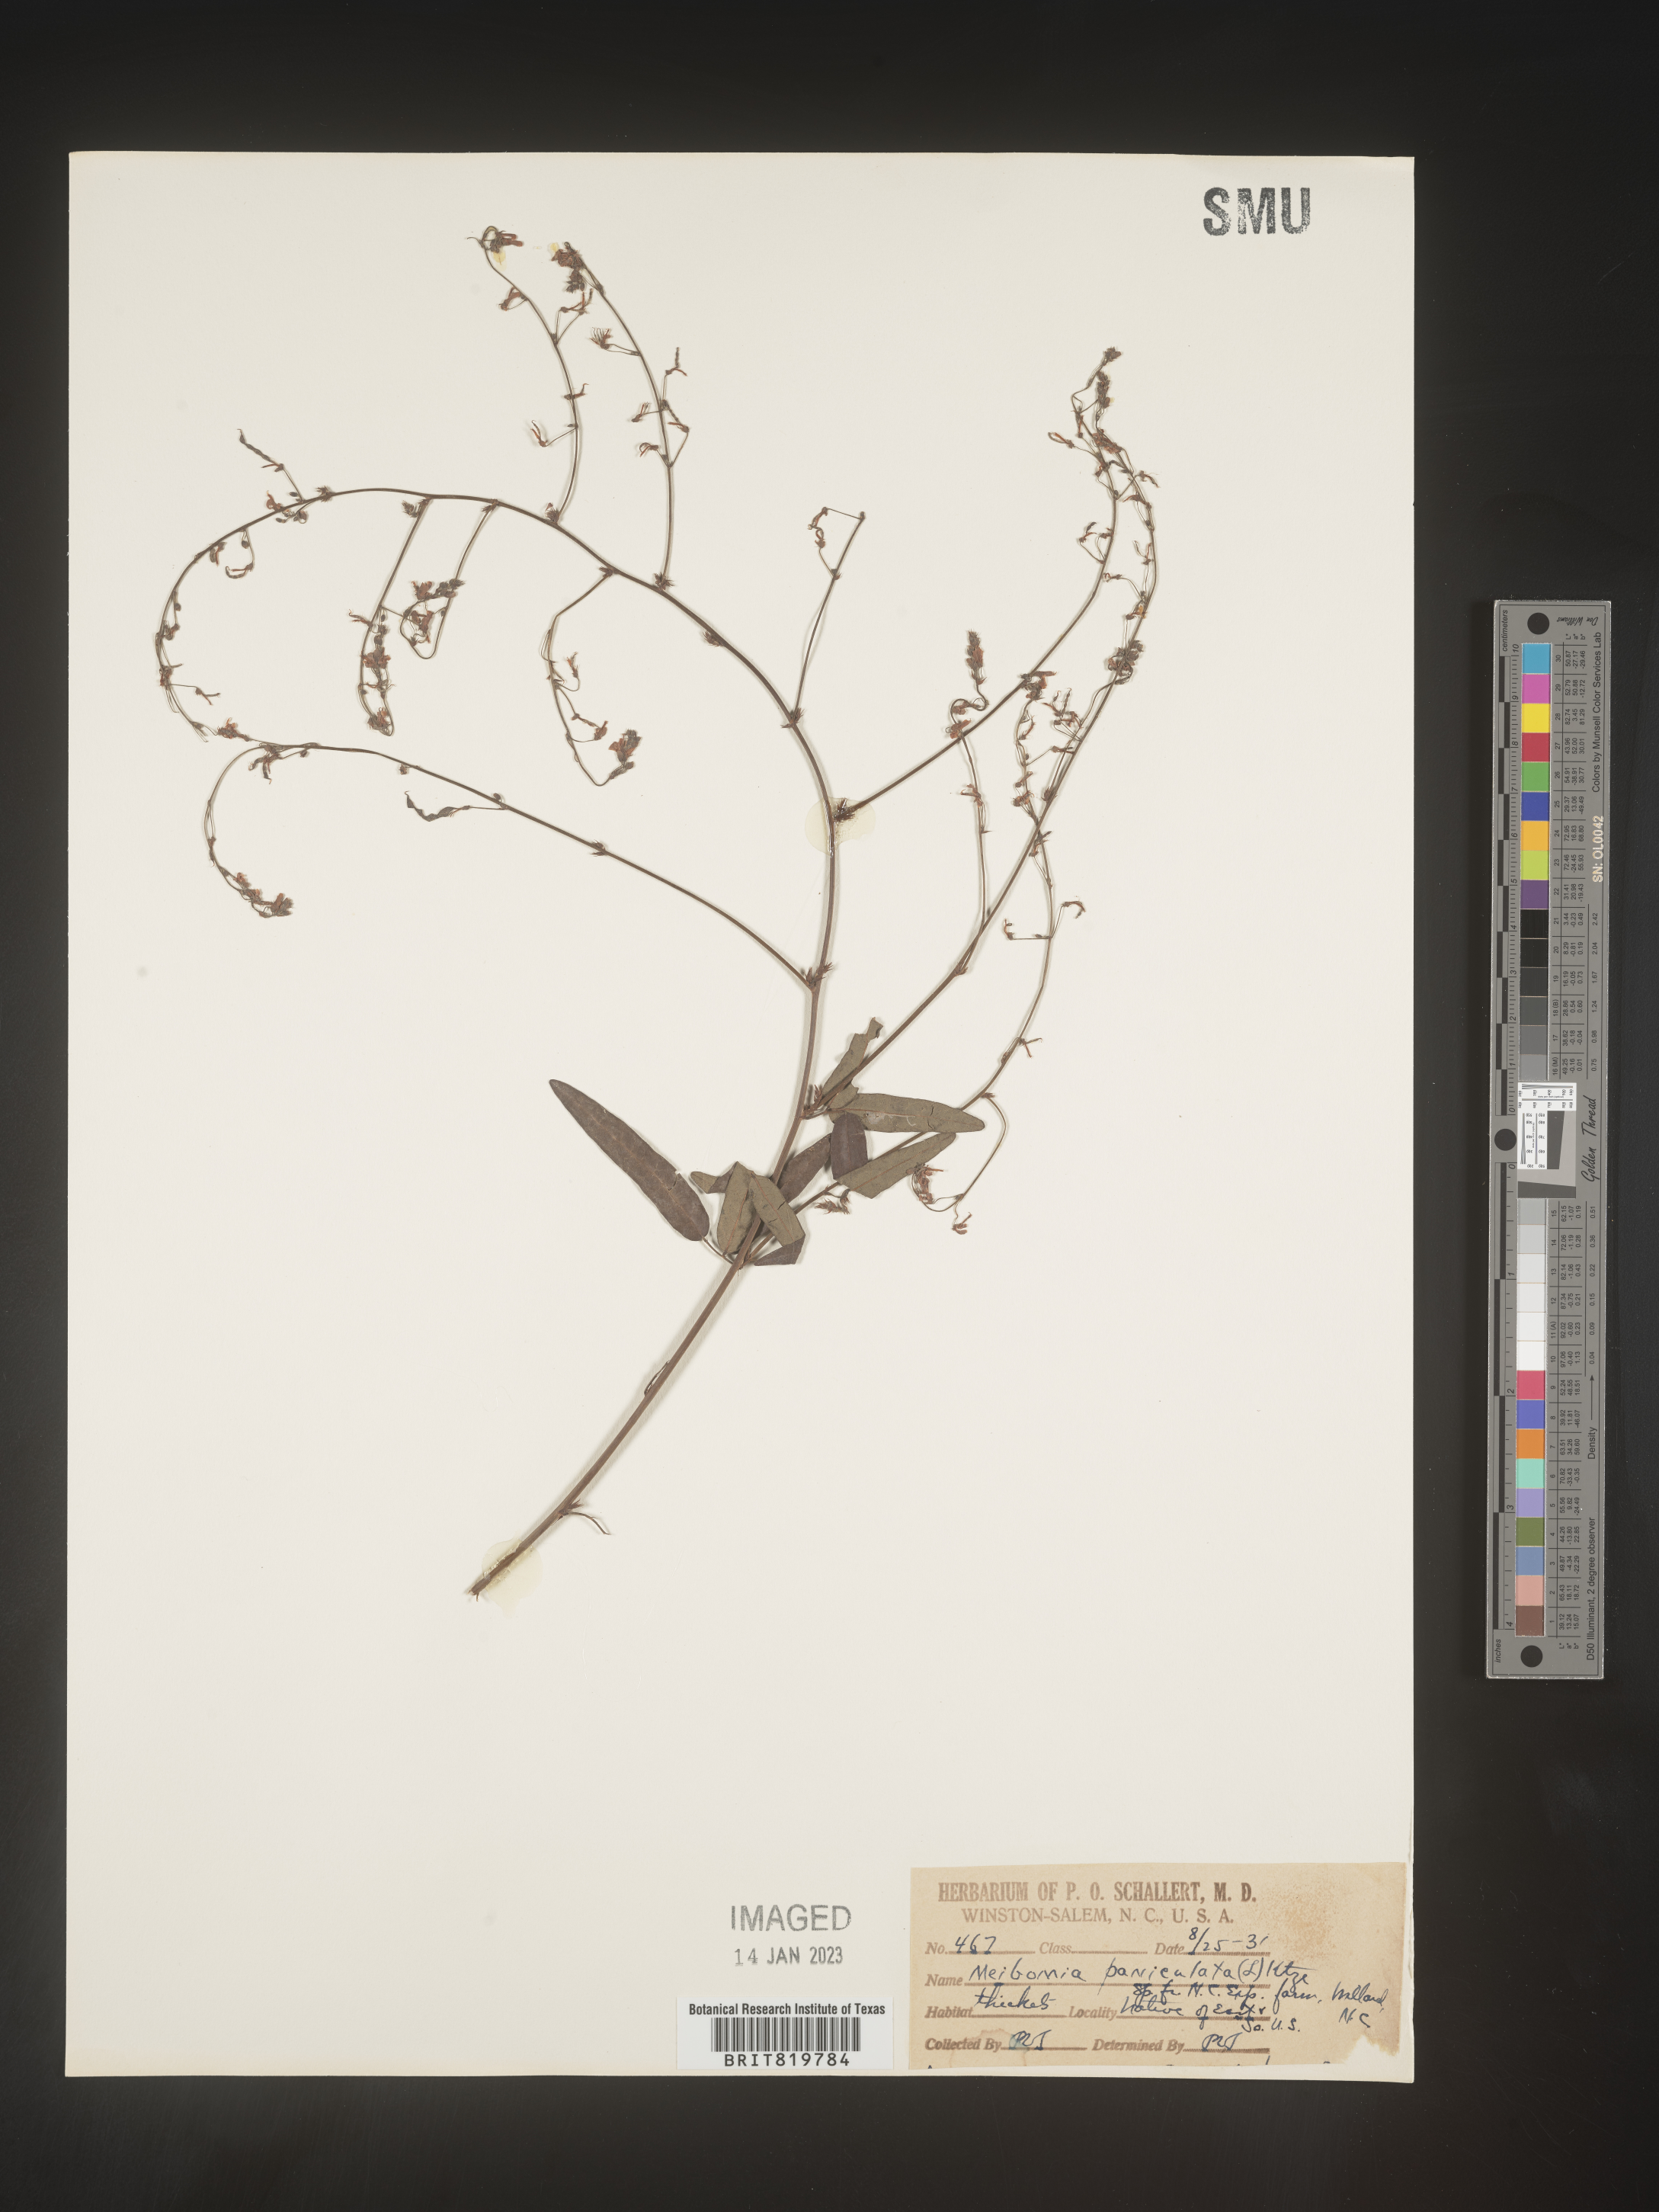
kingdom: Plantae
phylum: Tracheophyta
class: Magnoliopsida
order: Fabales
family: Fabaceae
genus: Desmodium
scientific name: Desmodium
